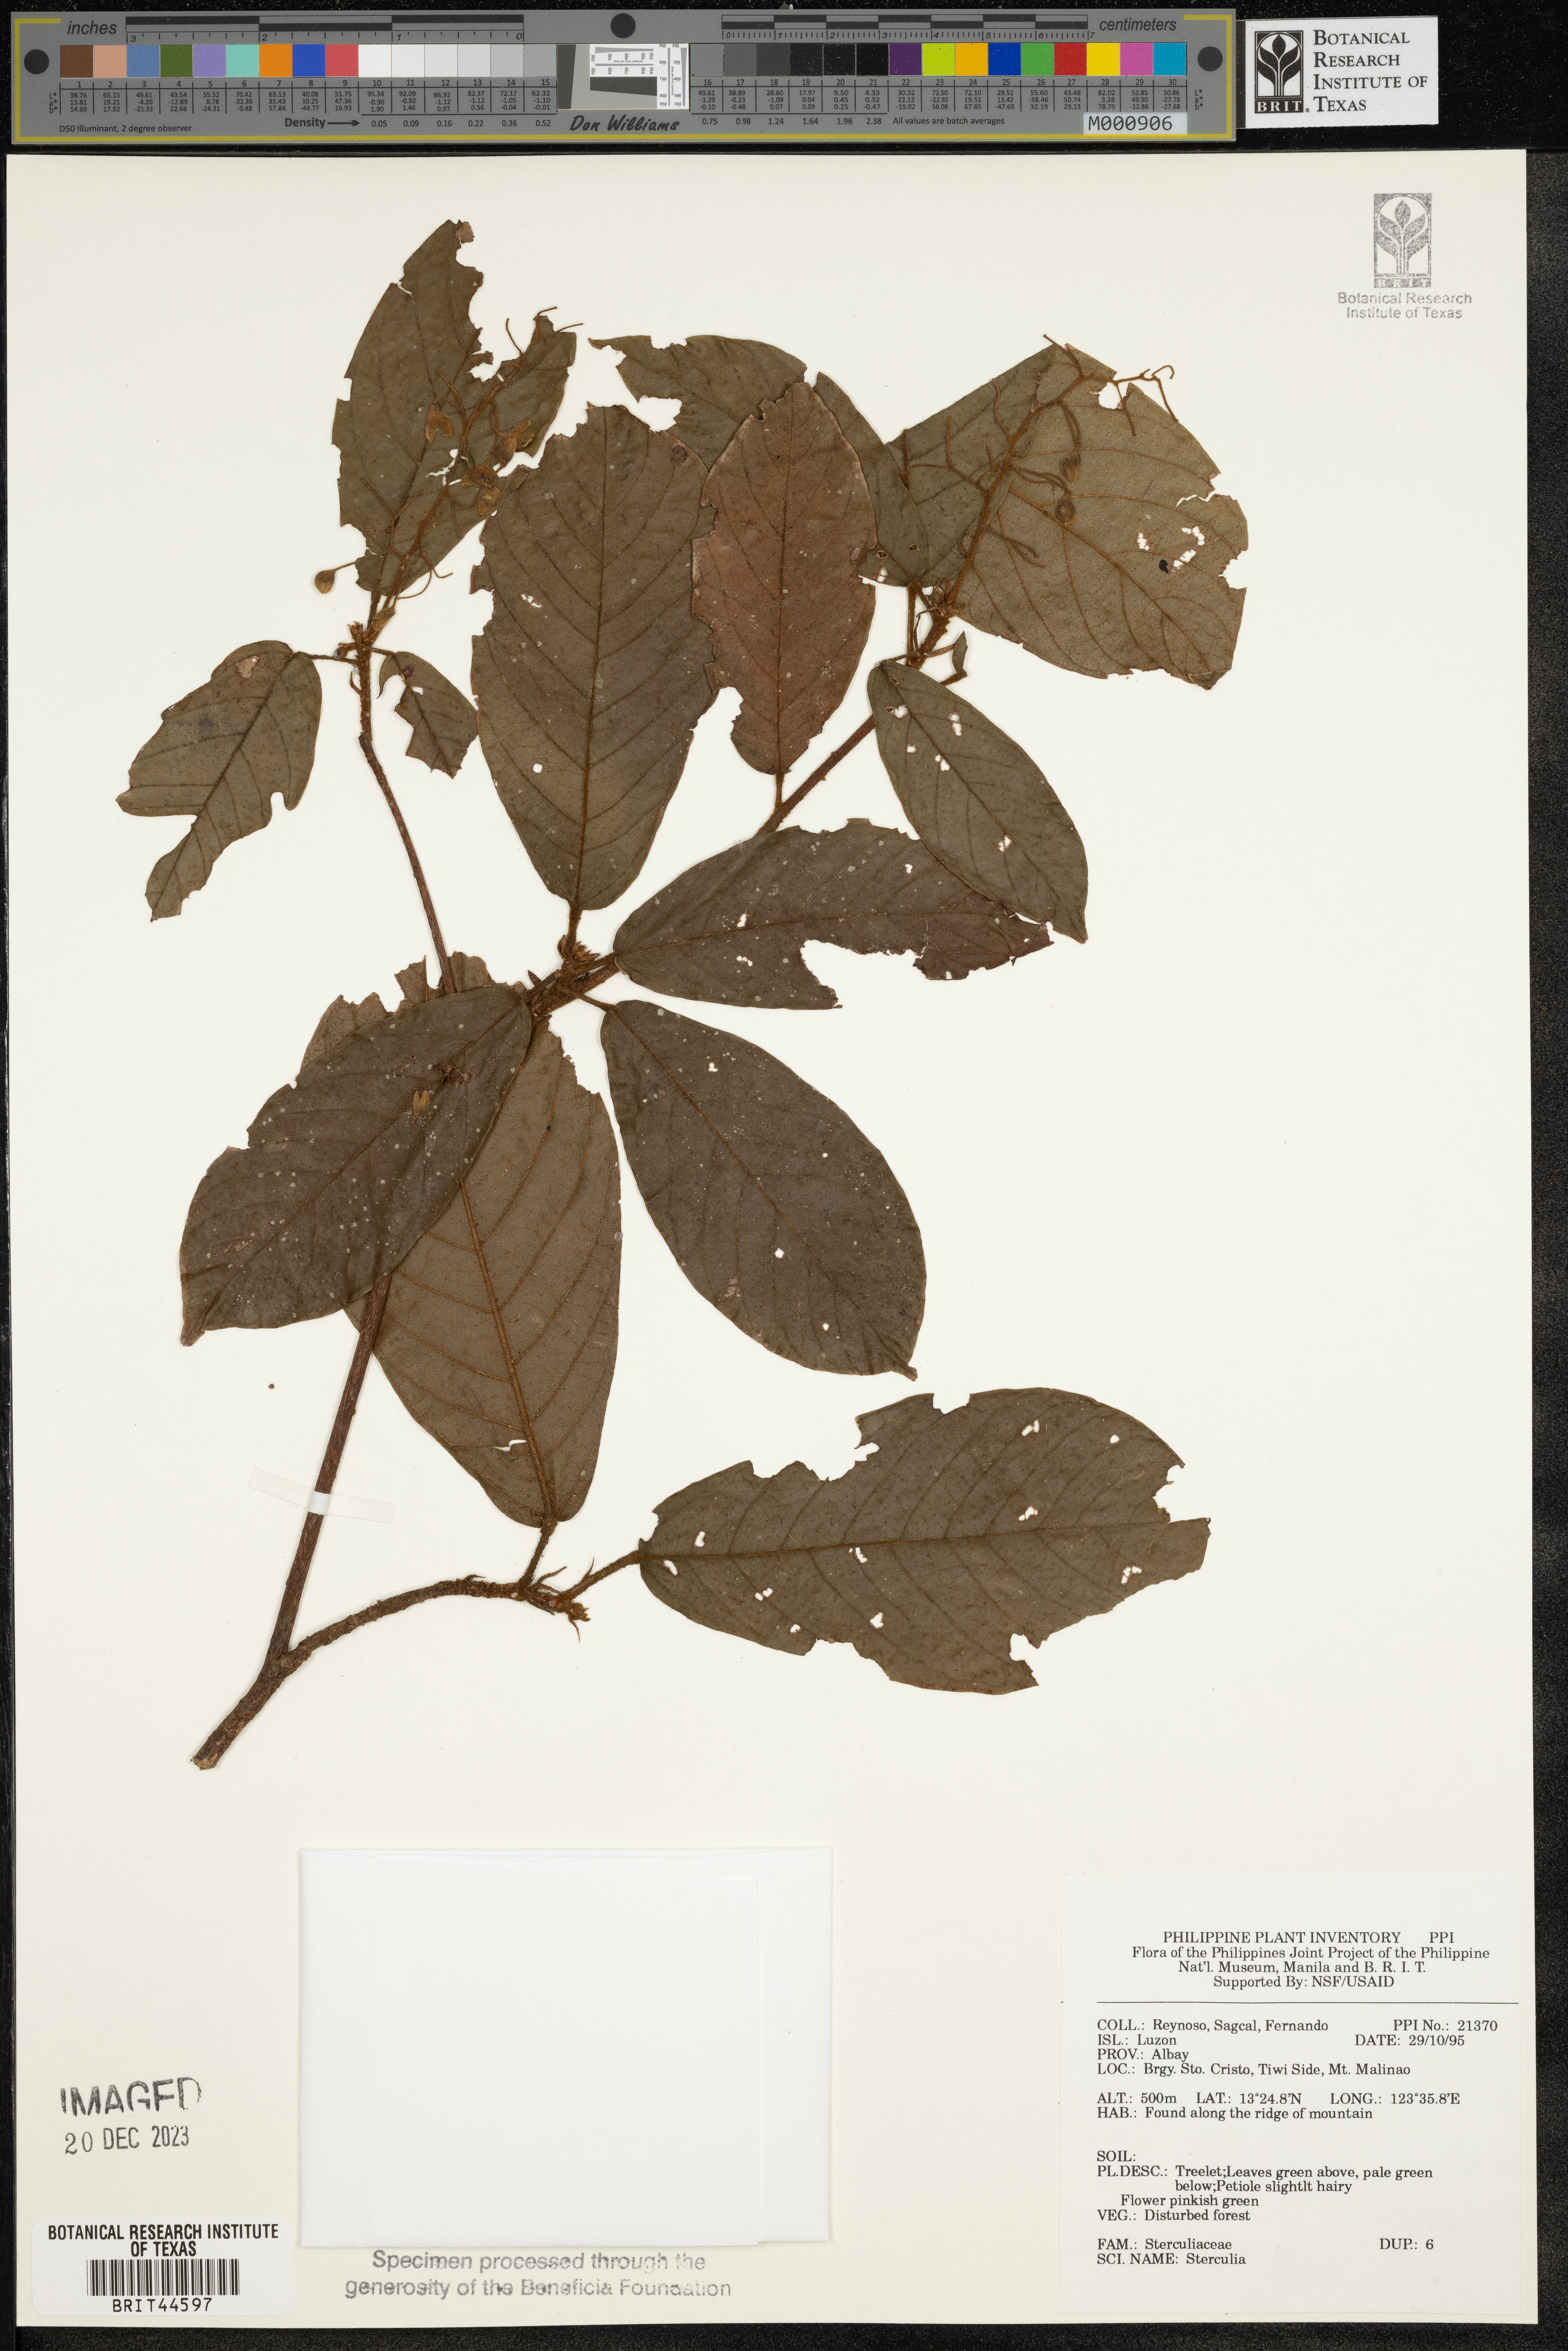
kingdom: Plantae
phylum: Tracheophyta
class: Magnoliopsida
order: Malvales
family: Malvaceae
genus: Sterculia
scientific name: Sterculia
